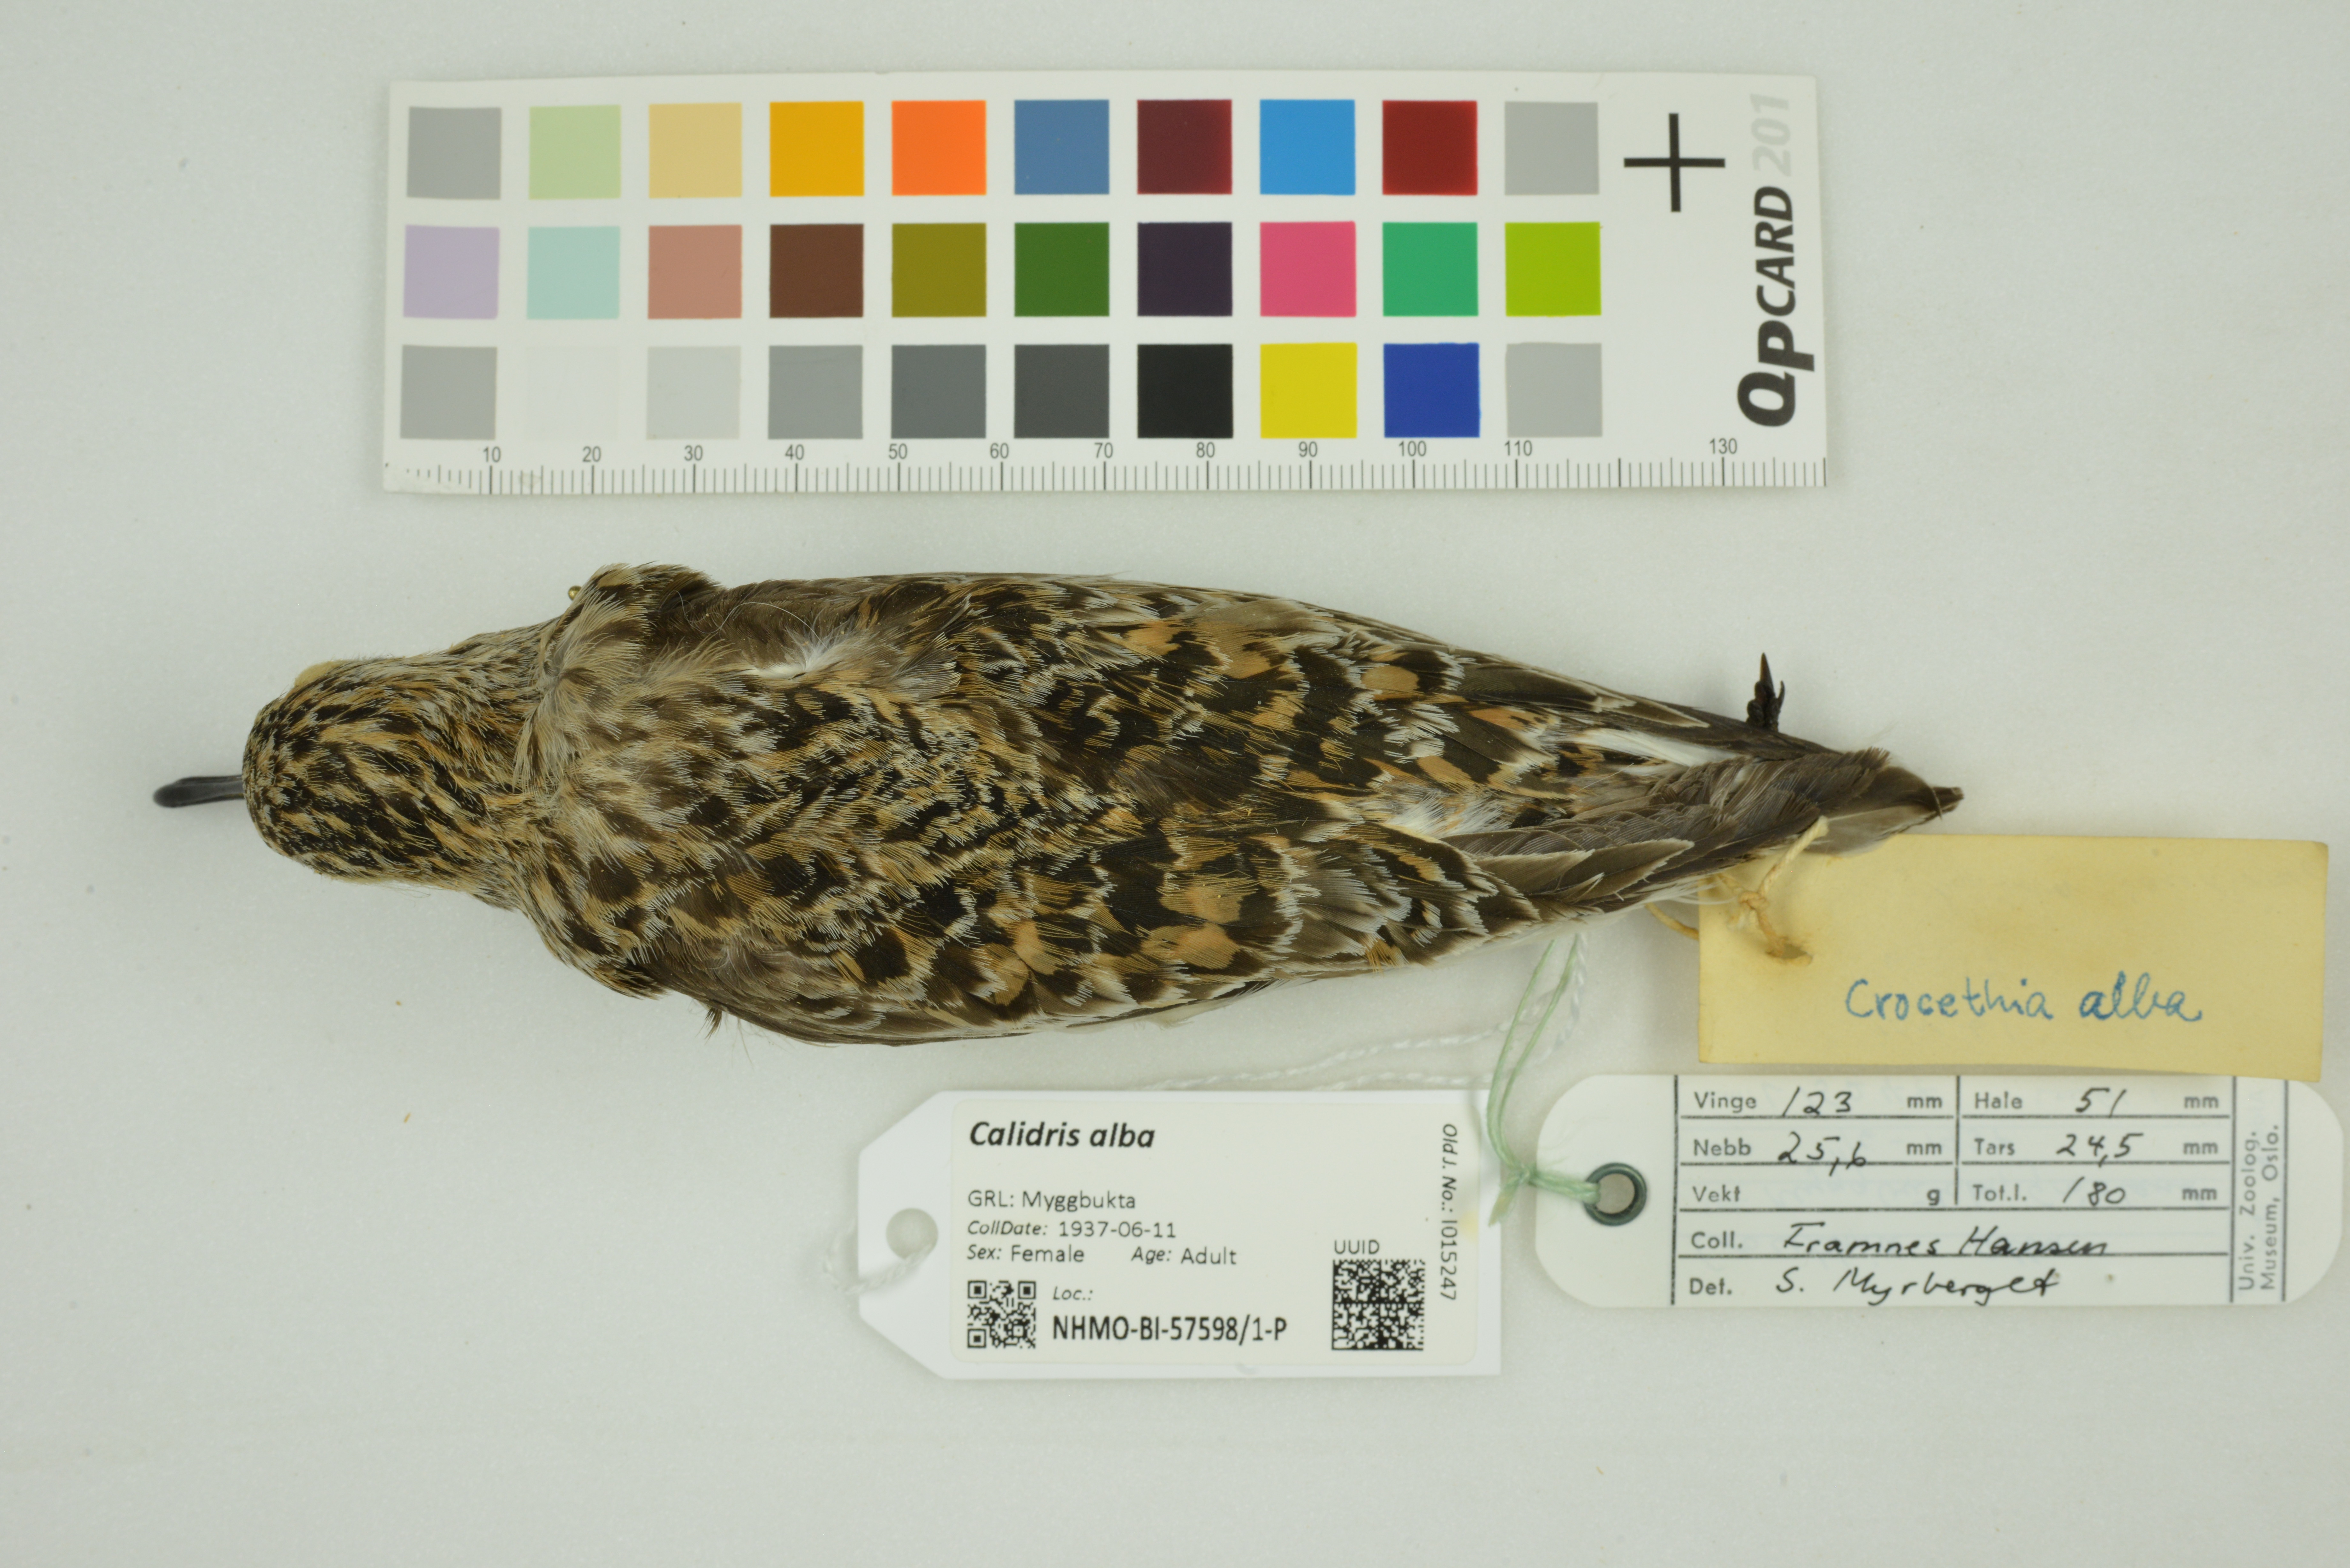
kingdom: Animalia
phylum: Chordata
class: Aves
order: Charadriiformes
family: Scolopacidae
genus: Calidris
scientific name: Calidris alba
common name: Sanderling
